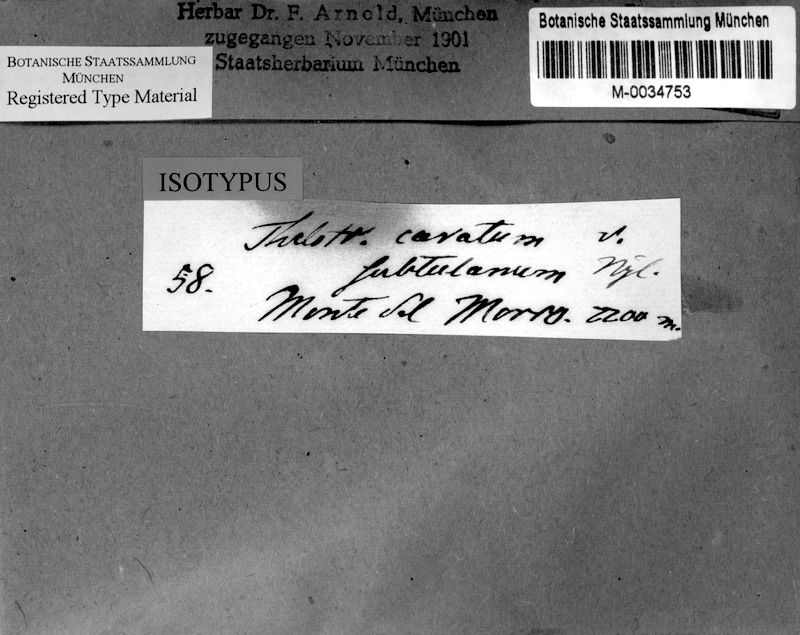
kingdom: Fungi
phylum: Ascomycota
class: Lecanoromycetes
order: Ostropales
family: Graphidaceae
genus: Ocellularia
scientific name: Ocellularia perforata
